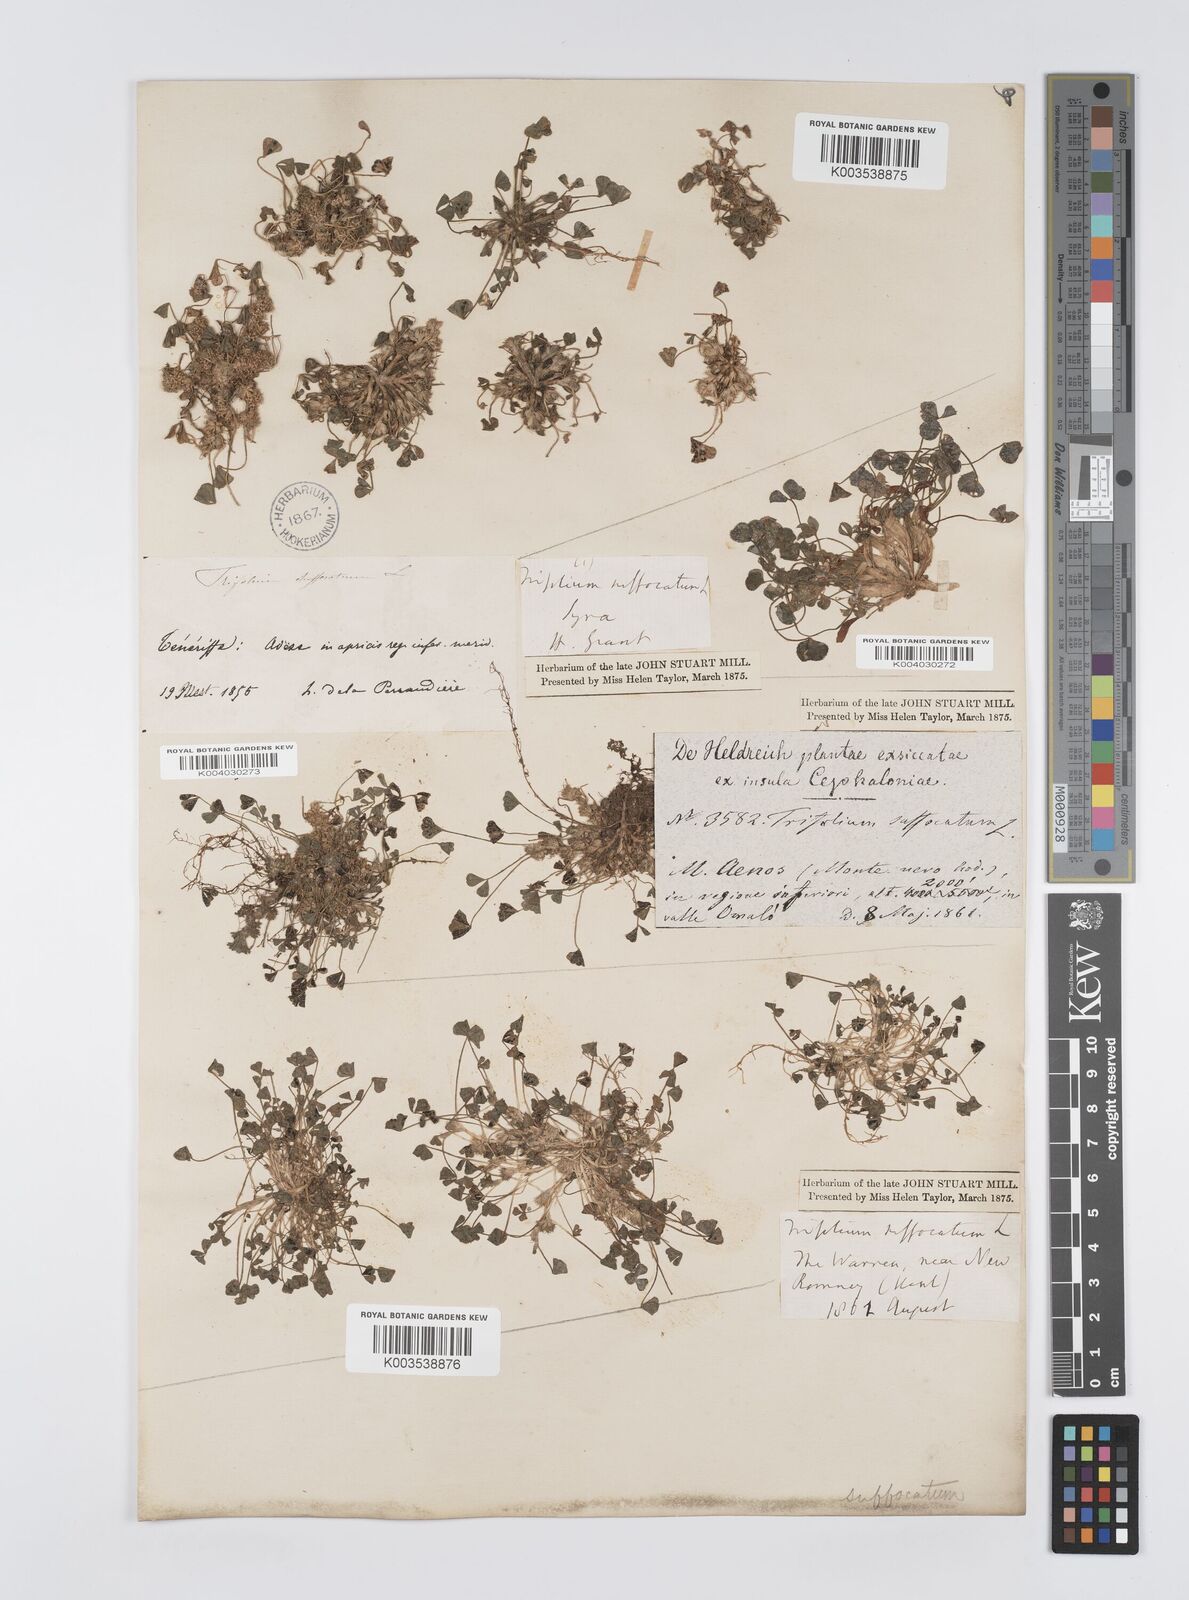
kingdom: Plantae
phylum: Tracheophyta
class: Magnoliopsida
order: Fabales
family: Fabaceae
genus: Trifolium
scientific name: Trifolium suffocatum
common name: Suffocated clover
